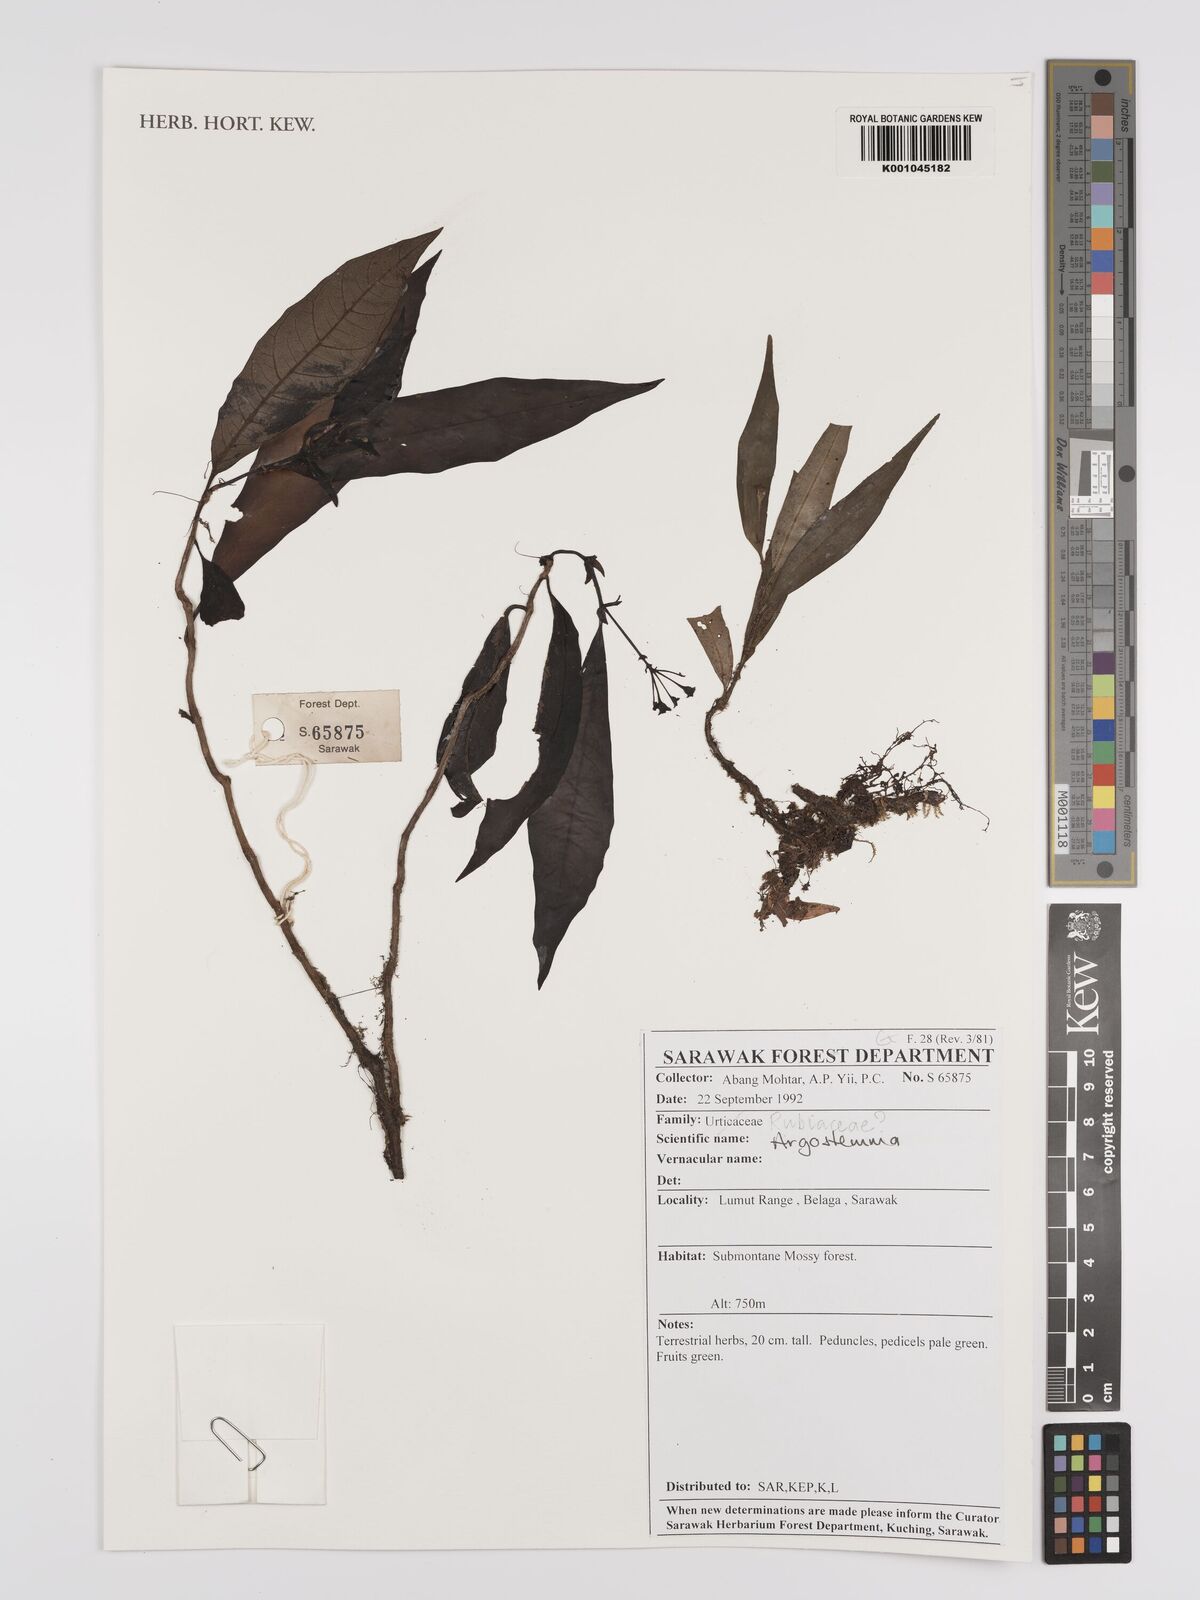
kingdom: Plantae
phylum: Tracheophyta
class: Magnoliopsida
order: Gentianales
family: Rubiaceae
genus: Argostemma
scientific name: Argostemma
